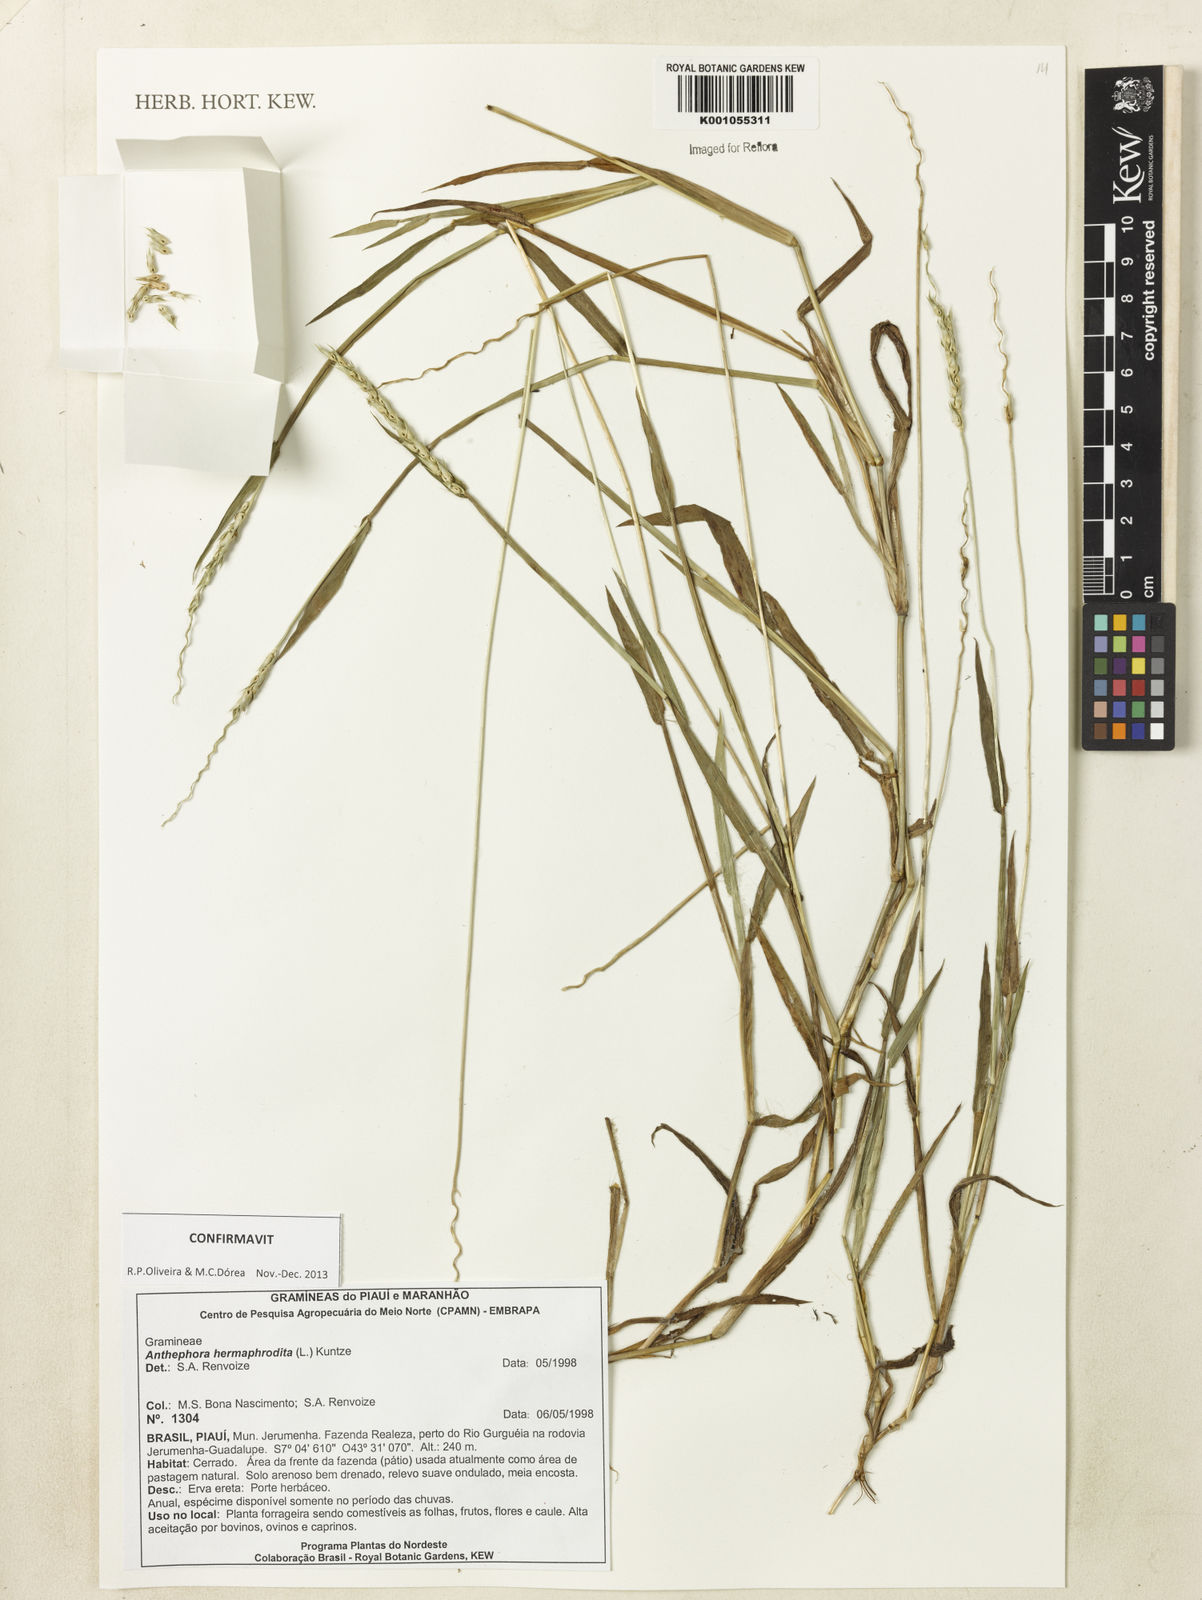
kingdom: Plantae
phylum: Tracheophyta
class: Liliopsida
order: Poales
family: Poaceae
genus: Anthephora
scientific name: Anthephora hermaphrodita
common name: Oldfield grass
